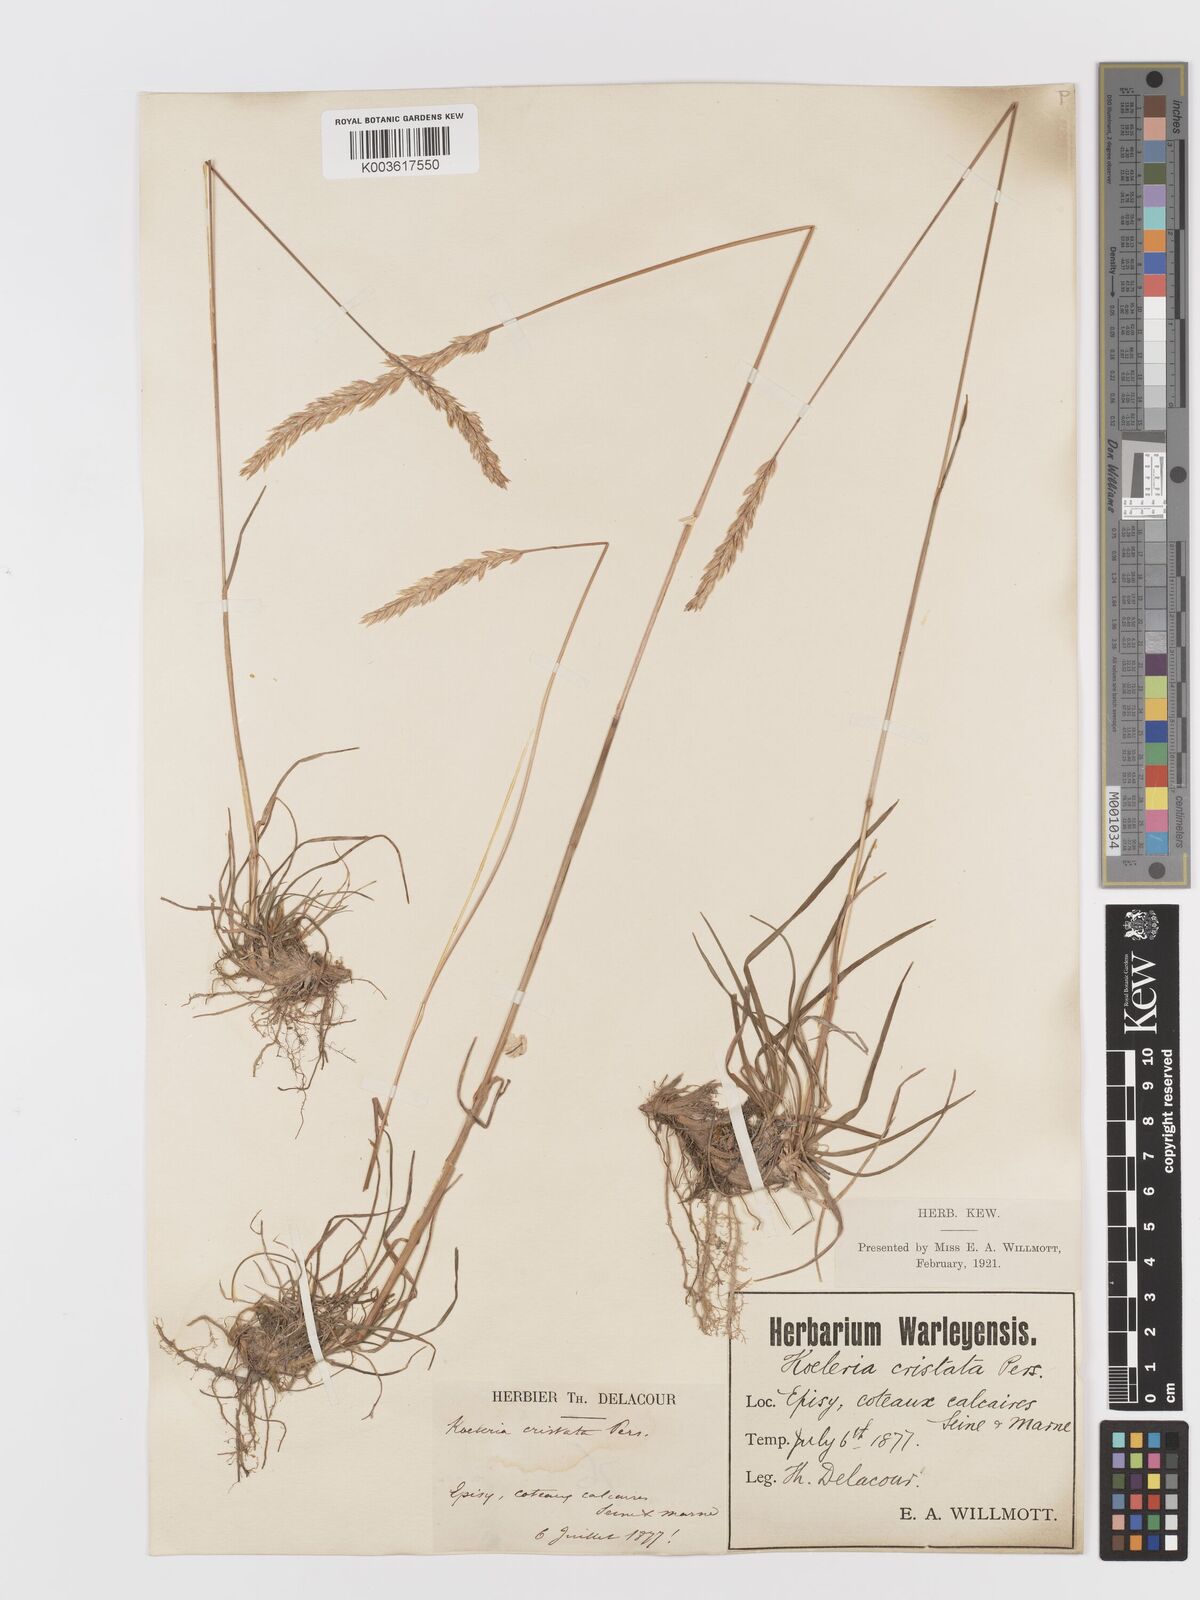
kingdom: Plantae
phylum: Tracheophyta
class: Liliopsida
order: Poales
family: Poaceae
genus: Koeleria
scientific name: Koeleria
